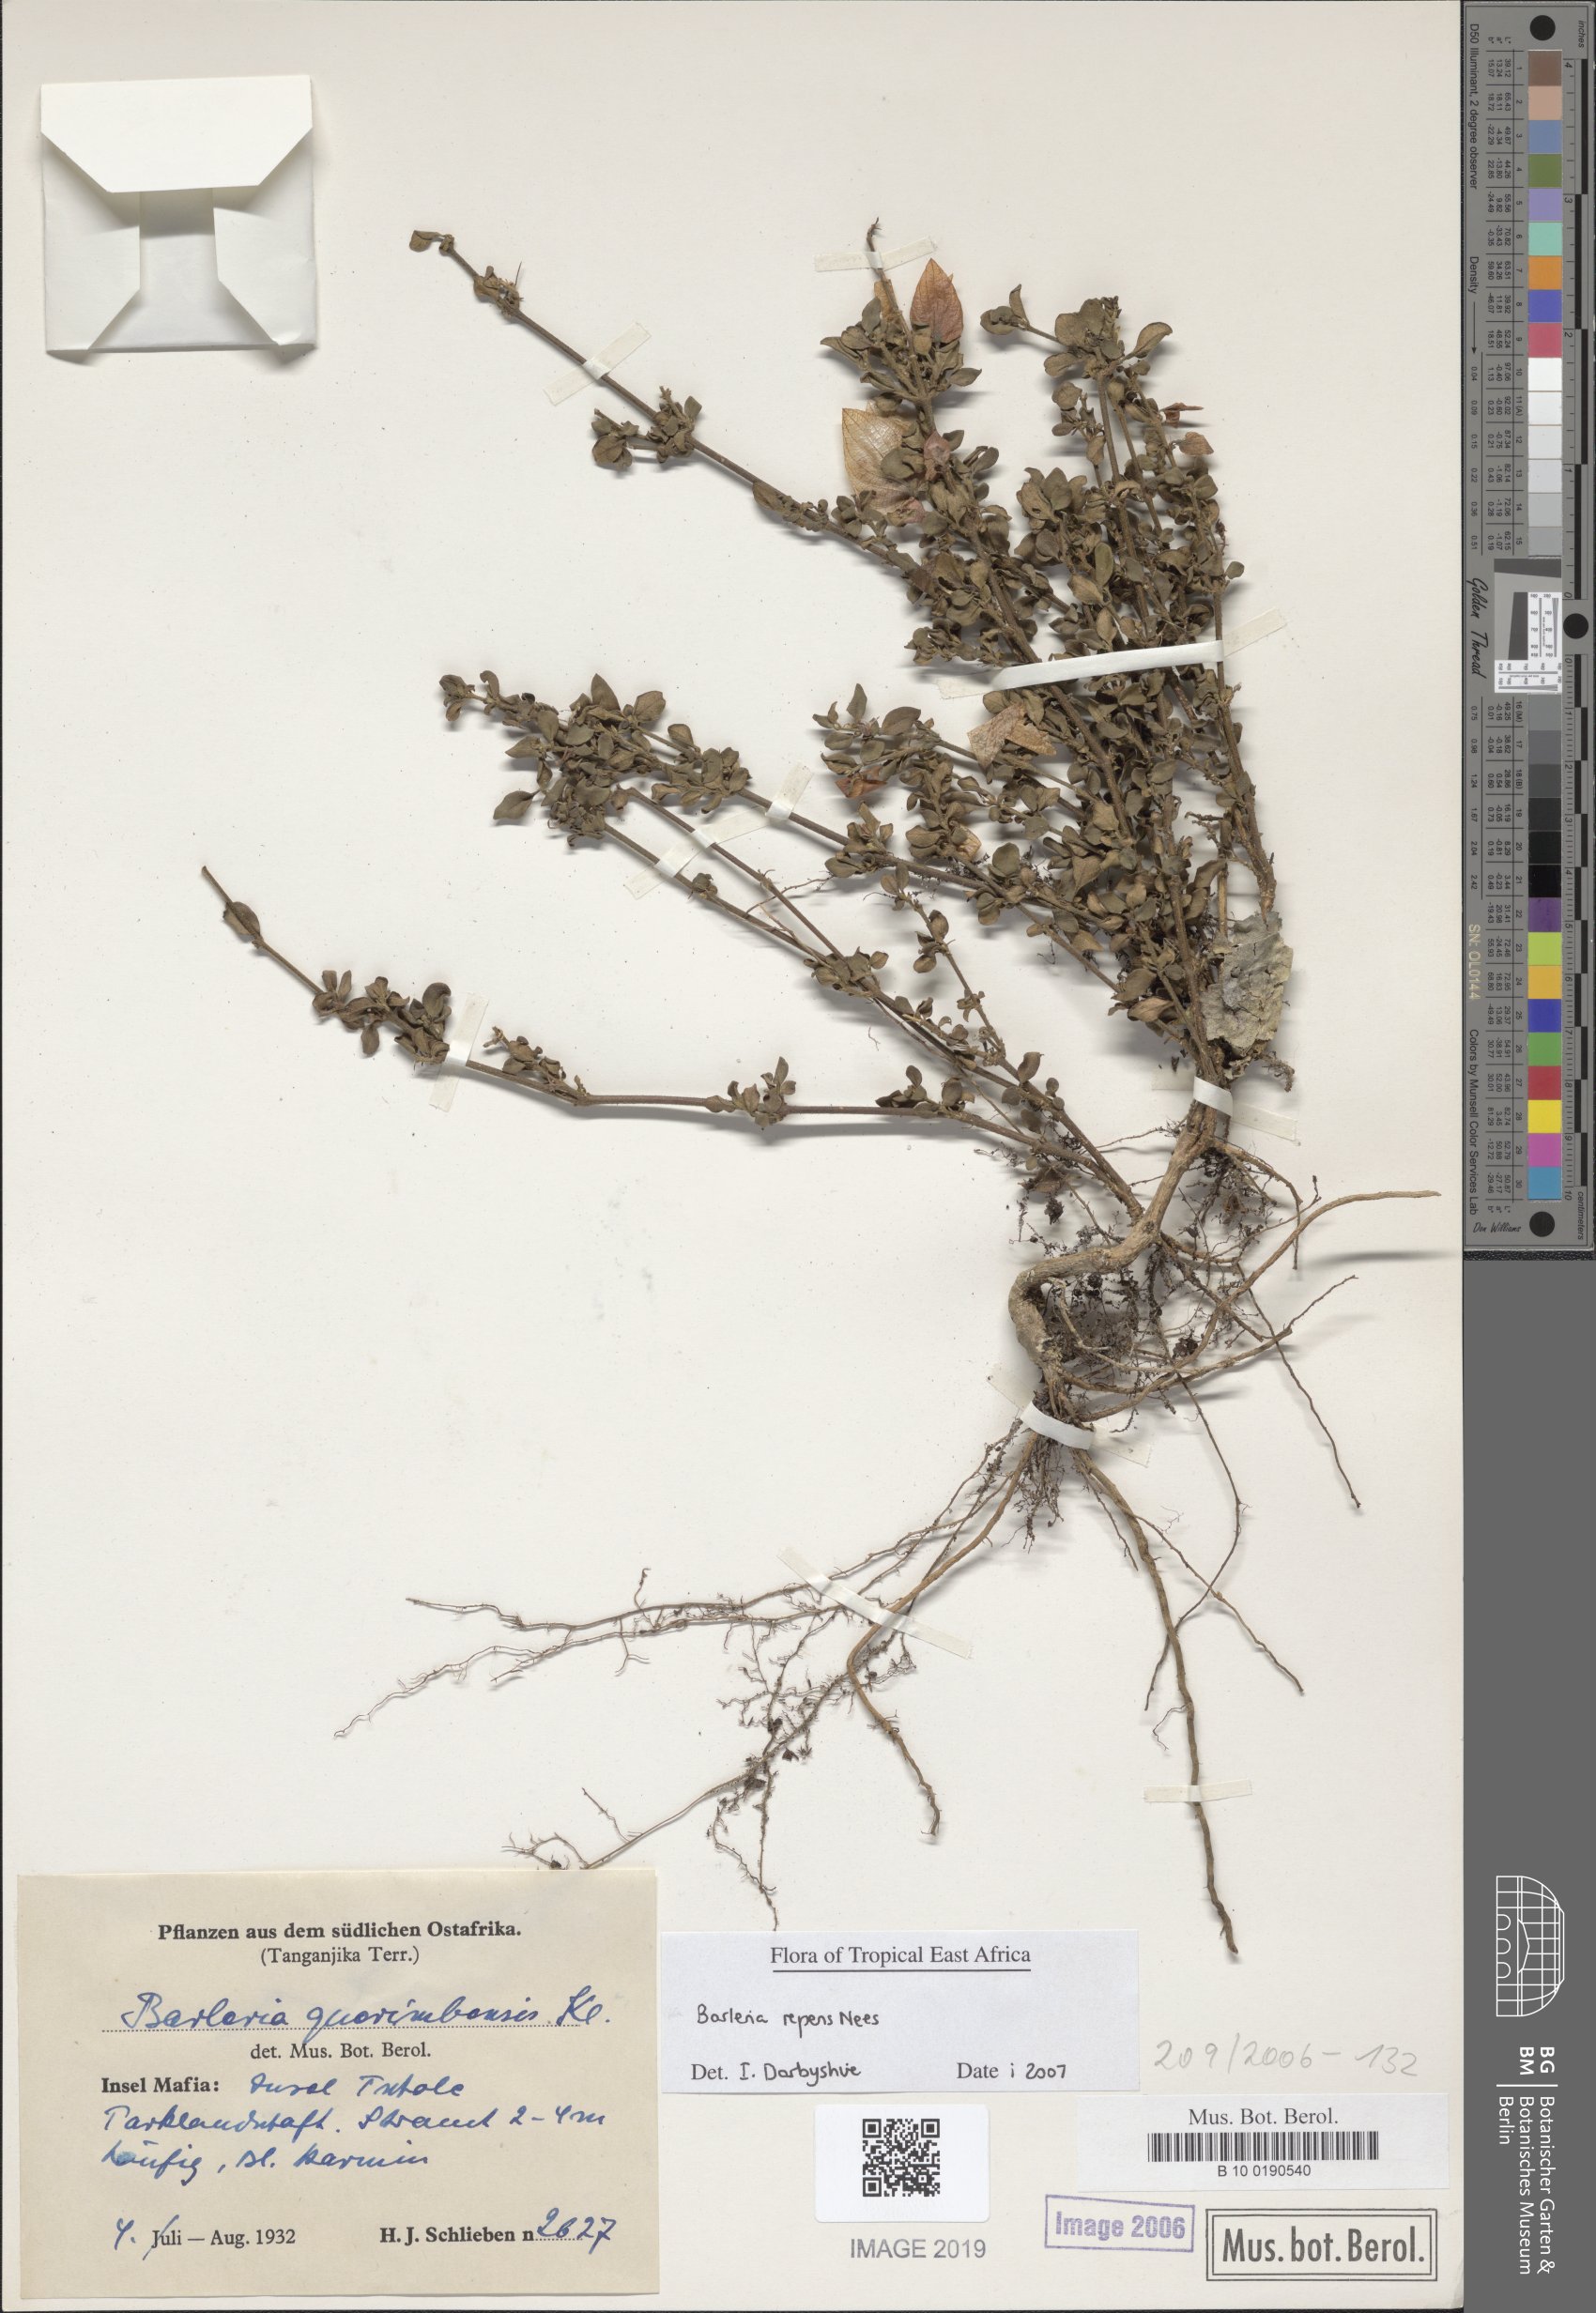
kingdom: Plantae
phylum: Tracheophyta
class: Magnoliopsida
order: Lamiales
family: Acanthaceae
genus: Barleria
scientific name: Barleria repens
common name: Pink-ruellia
